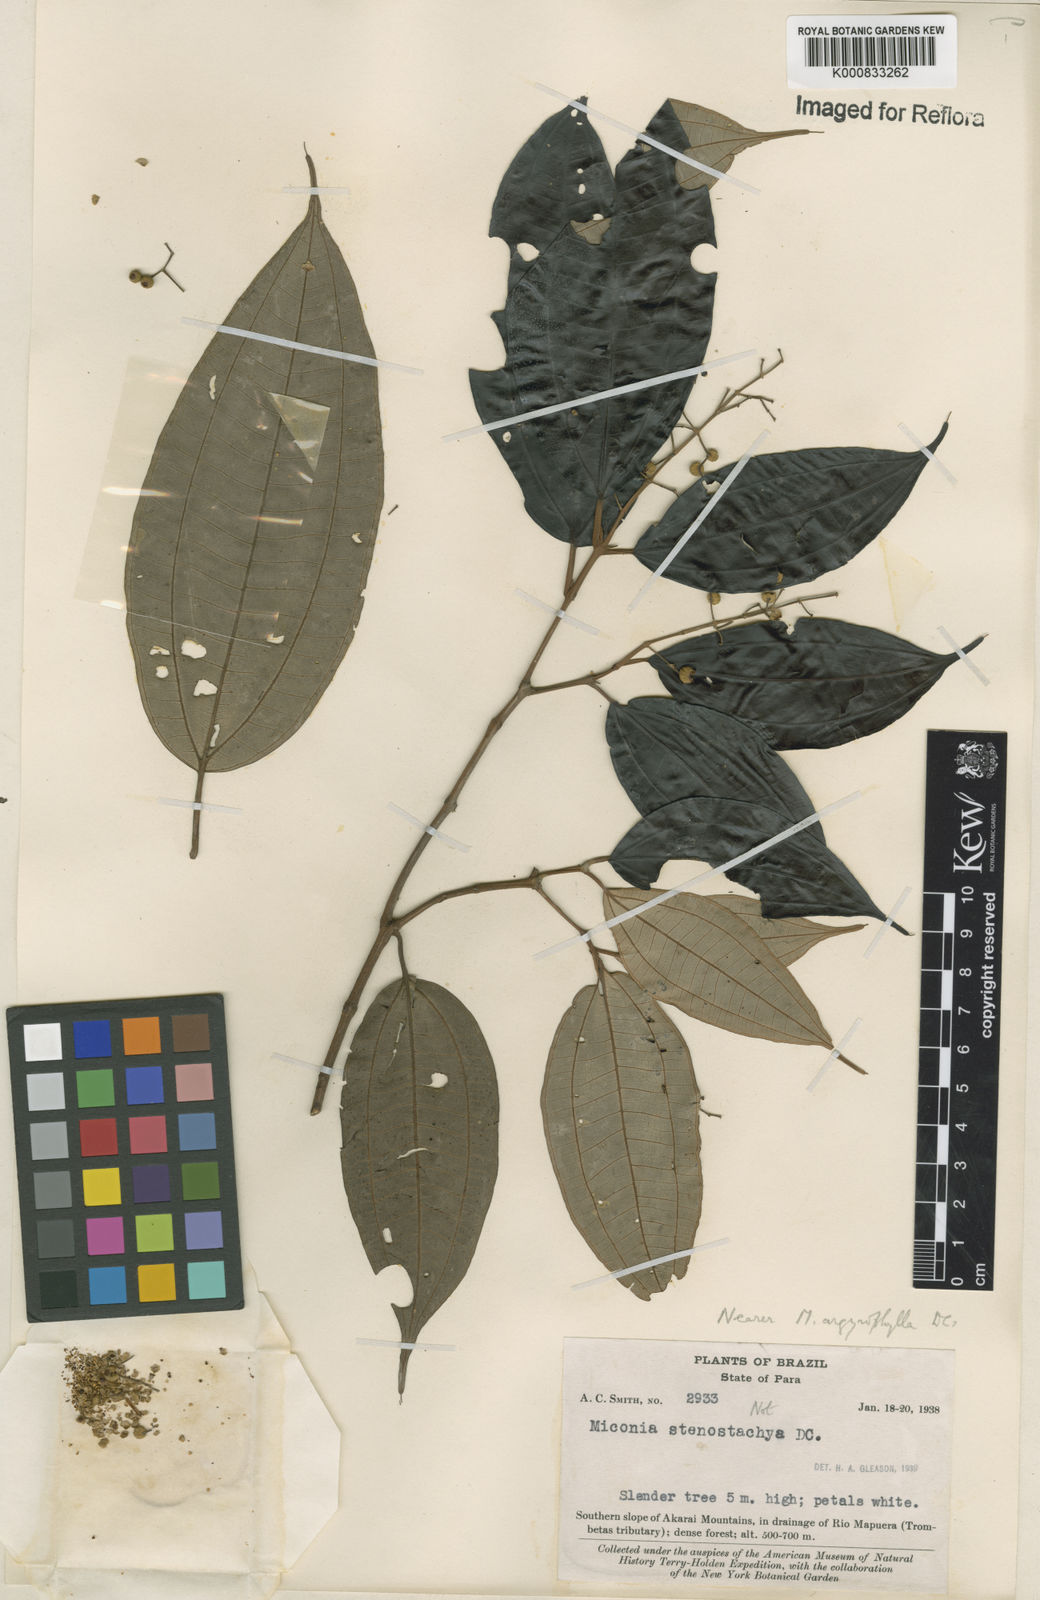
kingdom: Plantae
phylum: Tracheophyta
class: Magnoliopsida
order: Myrtales
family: Melastomataceae
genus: Miconia
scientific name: Miconia argyrophylla
